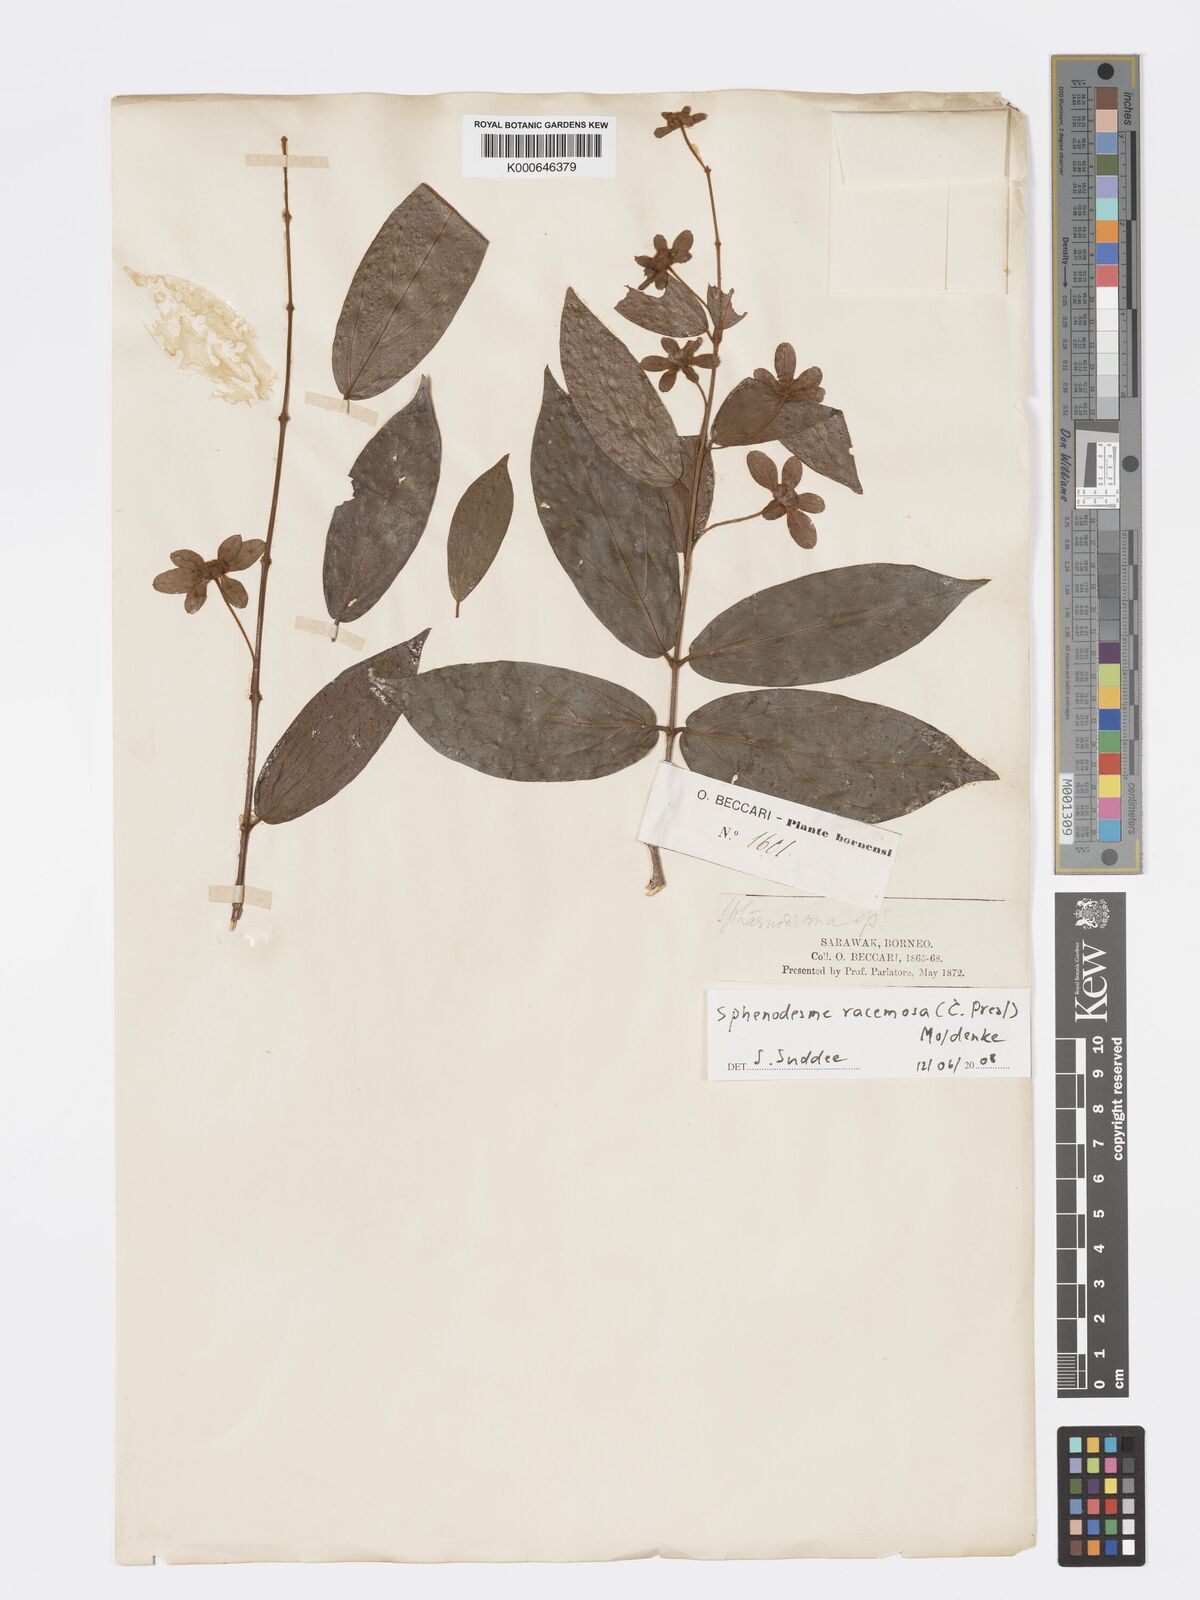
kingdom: Plantae
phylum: Tracheophyta
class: Magnoliopsida
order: Lamiales
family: Lamiaceae
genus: Sphenodesme
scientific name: Sphenodesme racemosa
